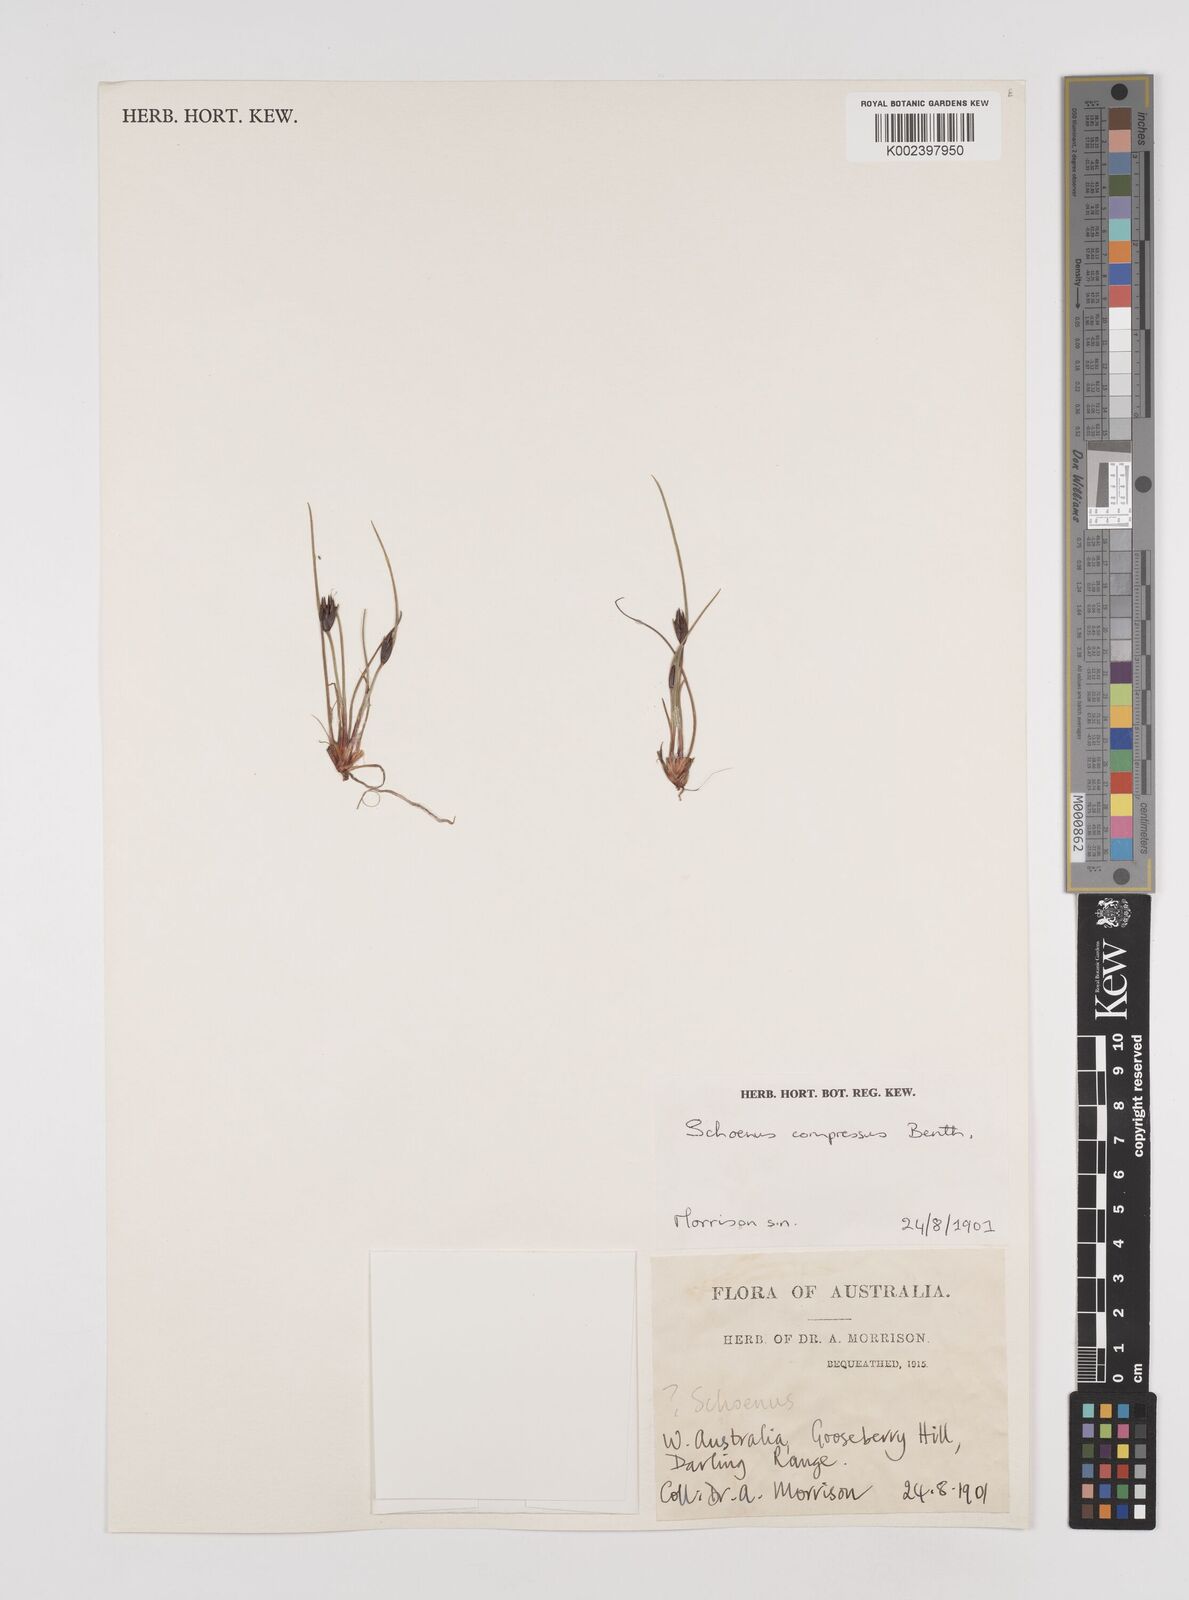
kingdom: Plantae
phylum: Tracheophyta
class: Liliopsida
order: Poales
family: Cyperaceae
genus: Schoenus
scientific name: Schoenus benthamii
